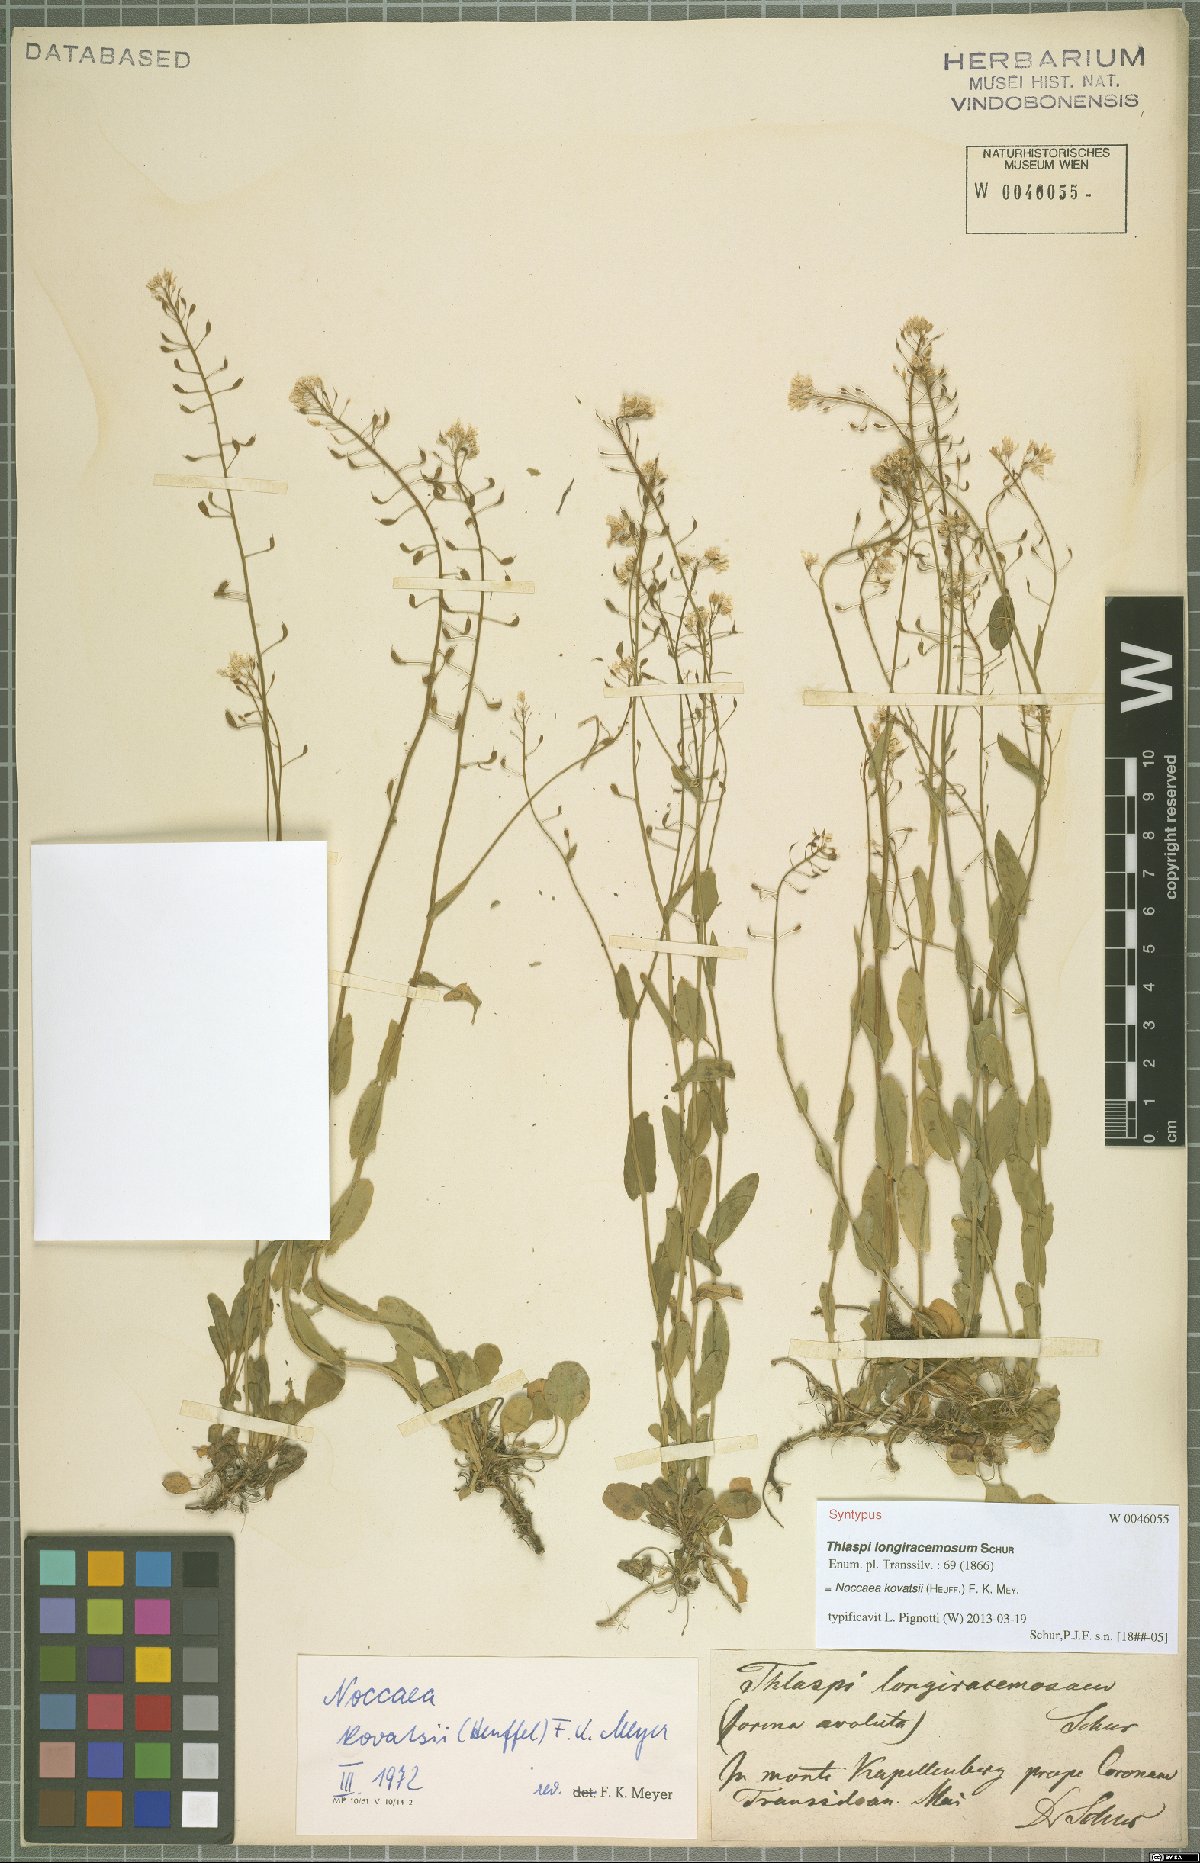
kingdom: Plantae
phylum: Tracheophyta
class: Magnoliopsida
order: Brassicales
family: Brassicaceae
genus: Noccaea
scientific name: Noccaea kovatsii
